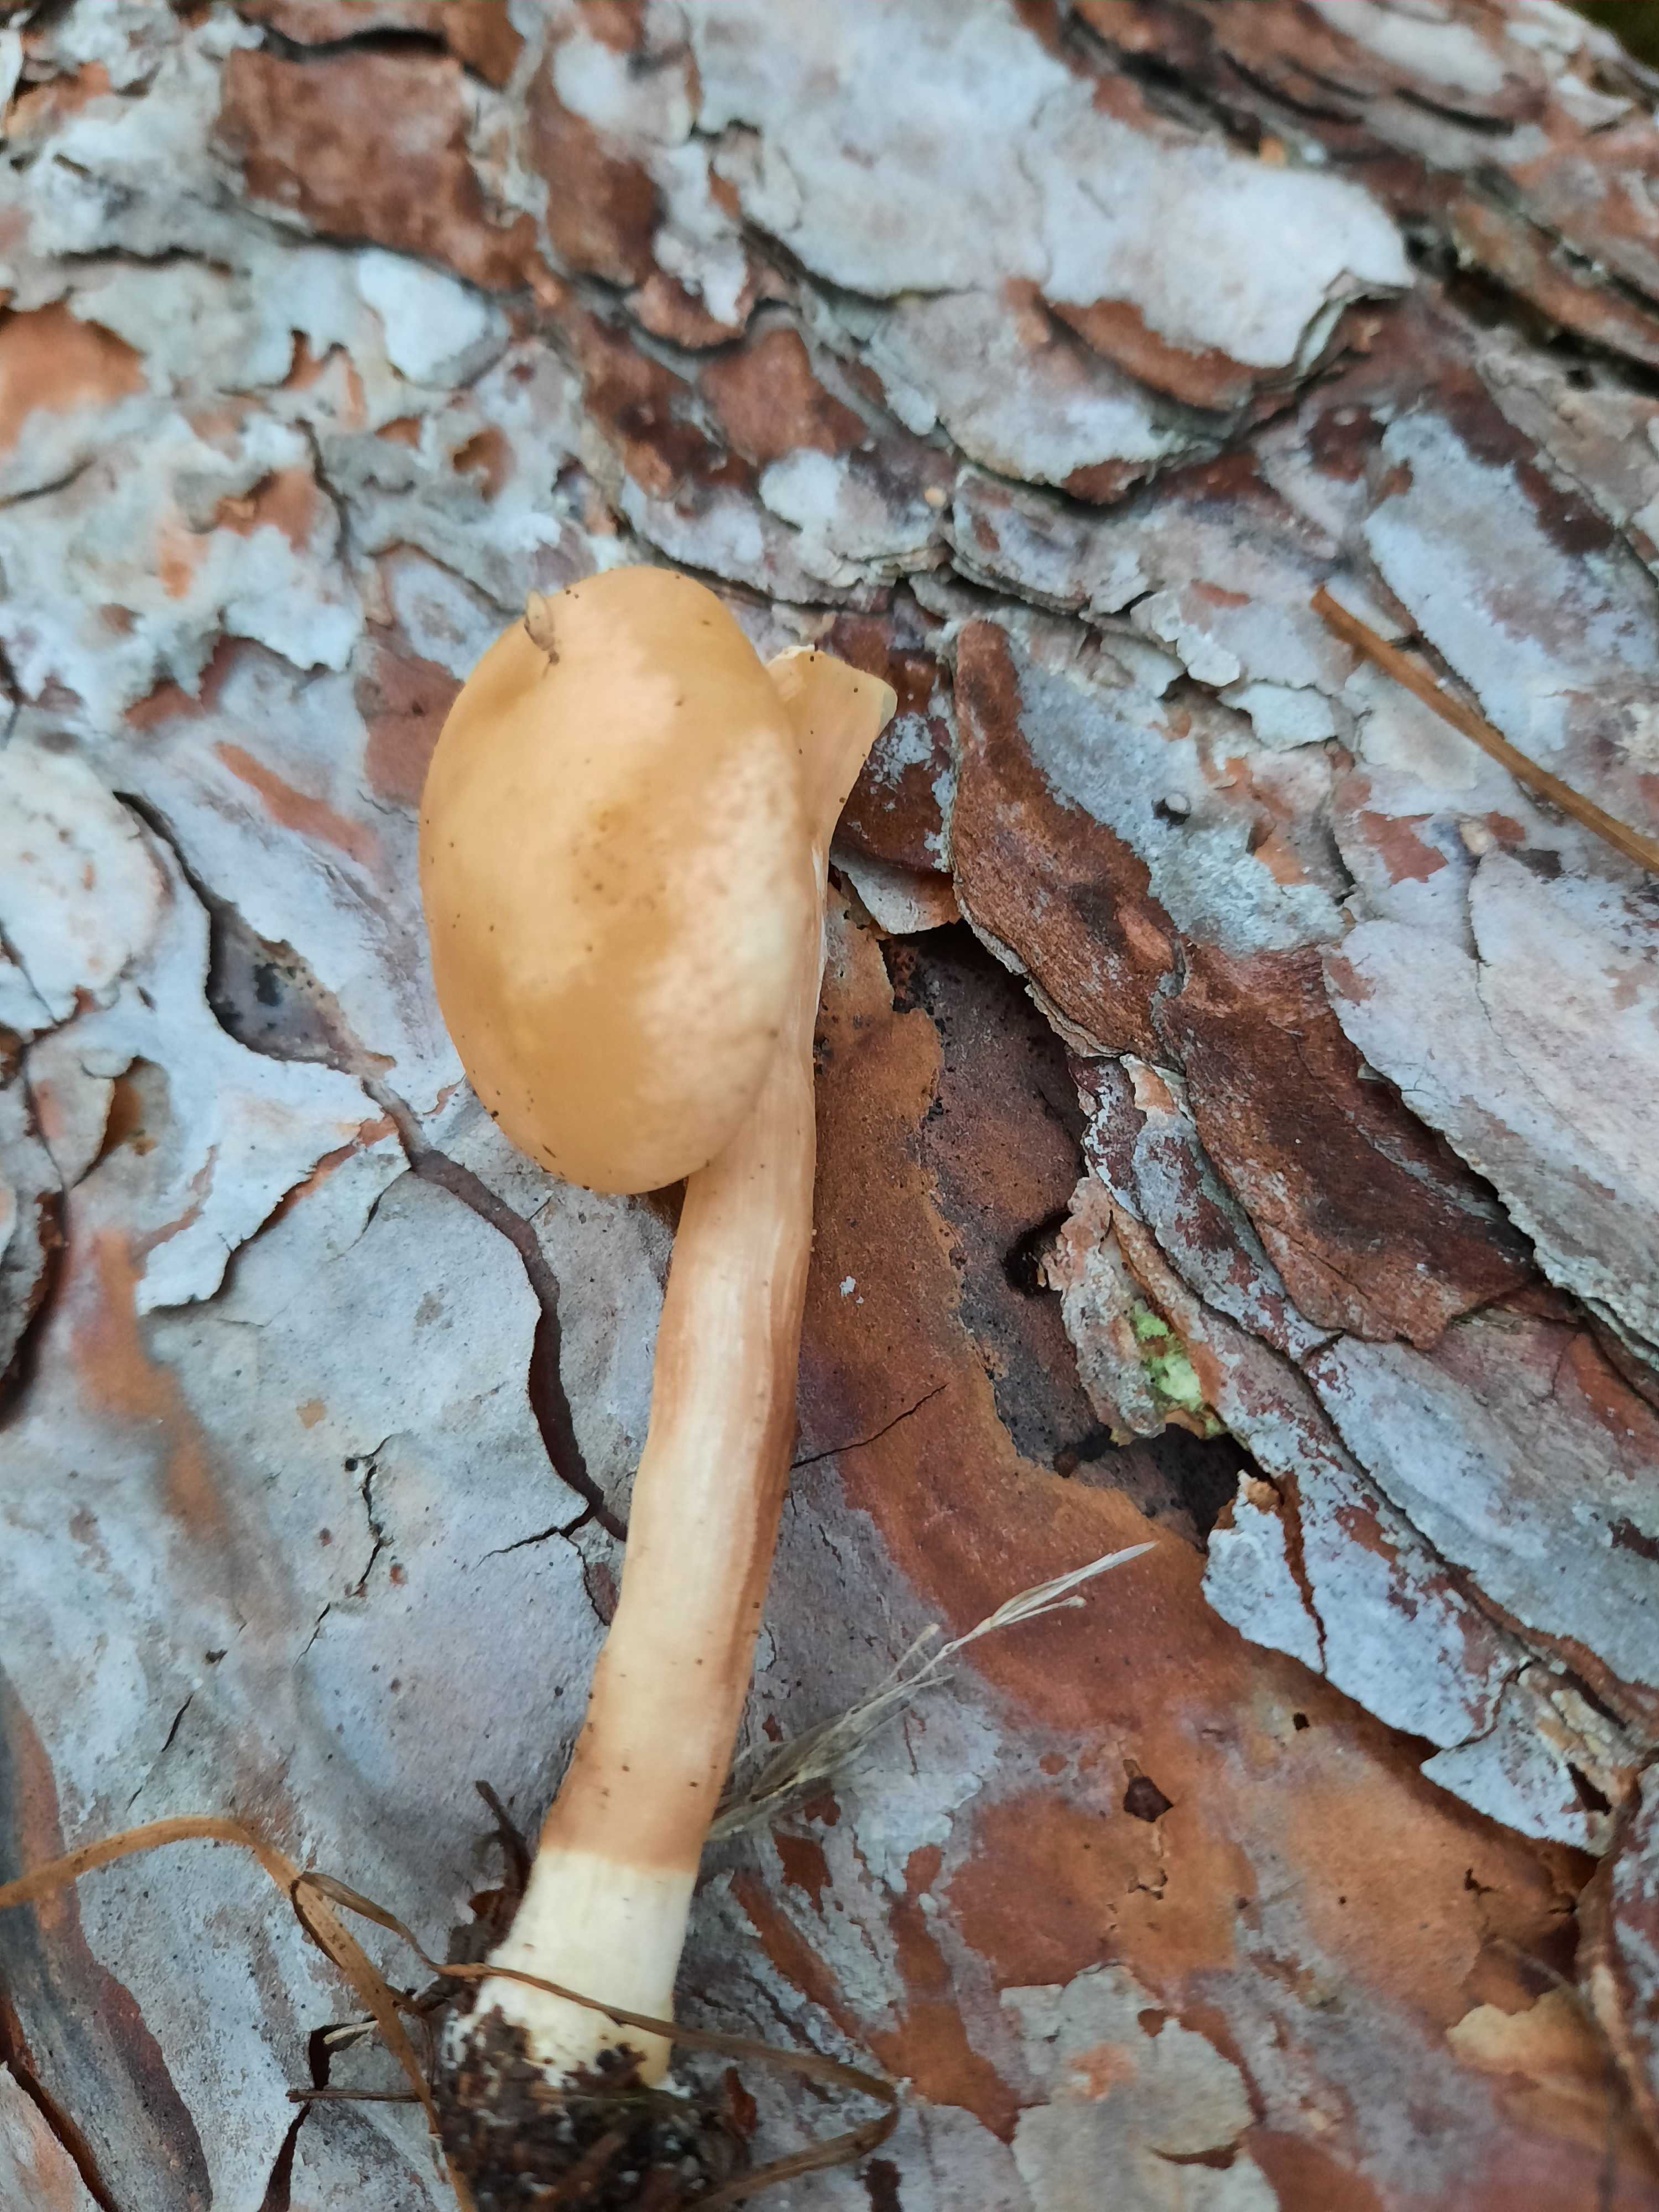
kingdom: Fungi
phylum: Basidiomycota
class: Agaricomycetes
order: Agaricales
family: Strophariaceae
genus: Hypholoma
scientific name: Hypholoma capnoides
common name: gran-svovlhat
